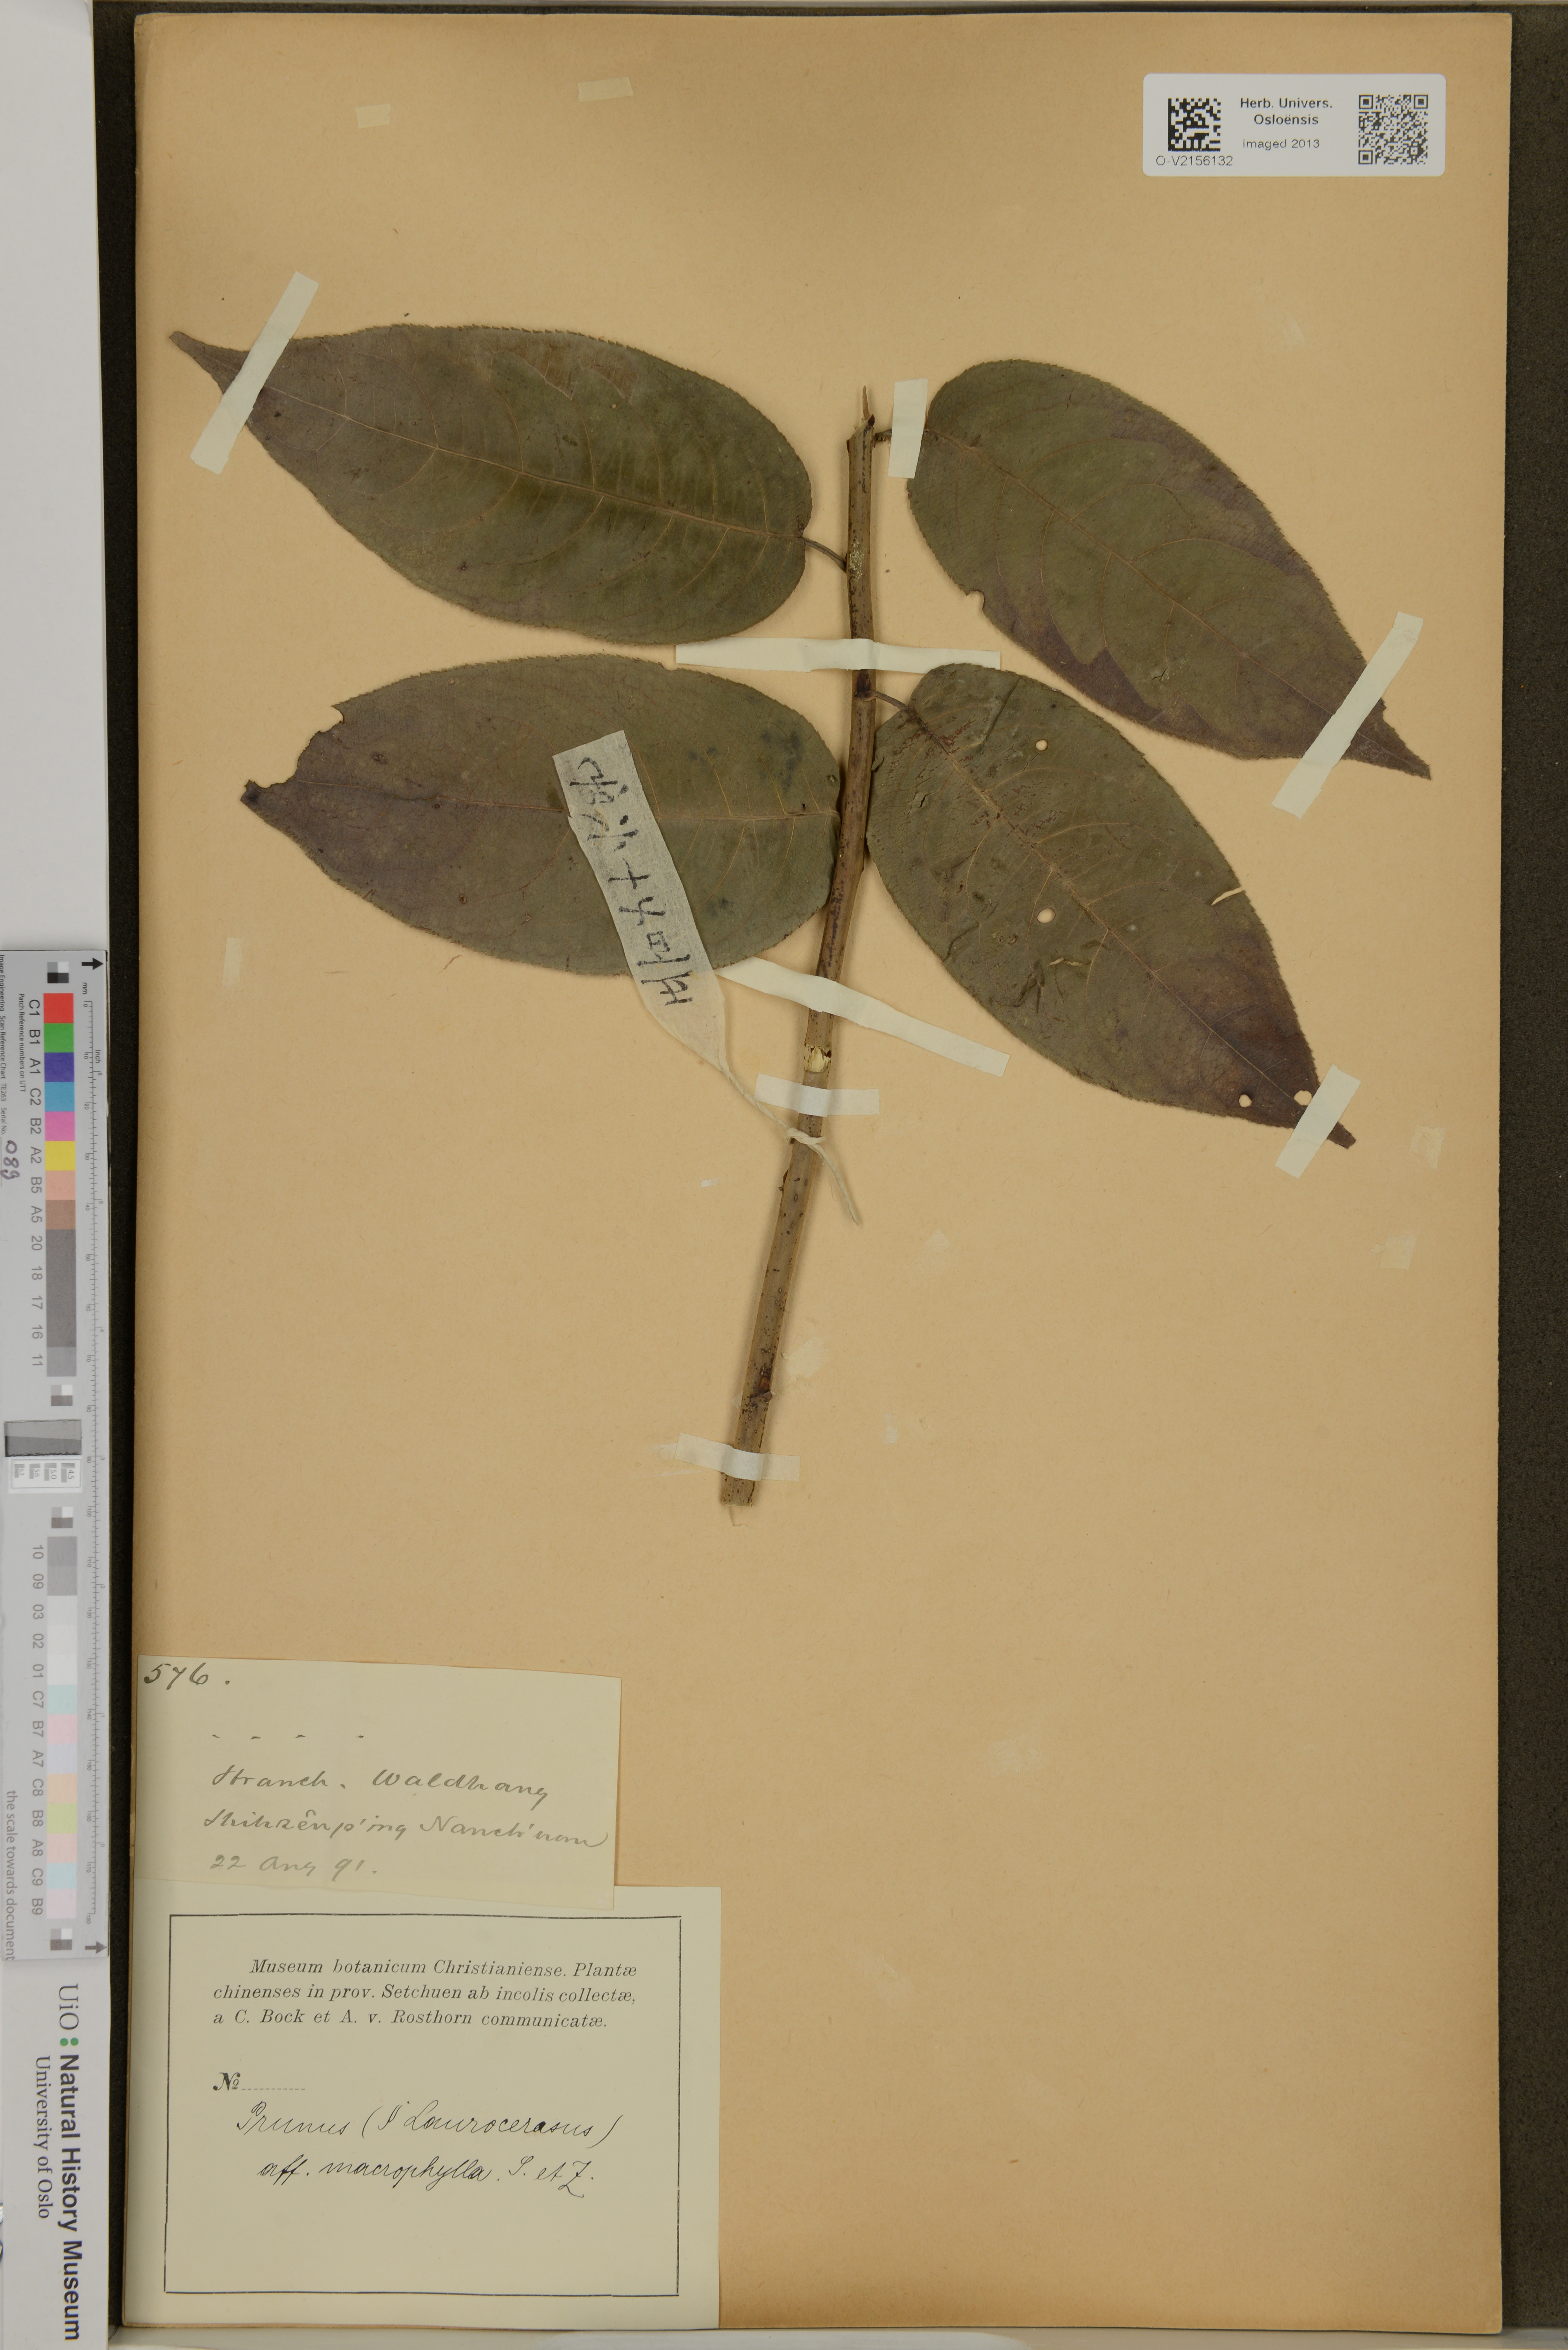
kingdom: Plantae
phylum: Tracheophyta
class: Magnoliopsida
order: Rosales
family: Rosaceae
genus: Prunus
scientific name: Prunus laurocerasus
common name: Cherry laurel
